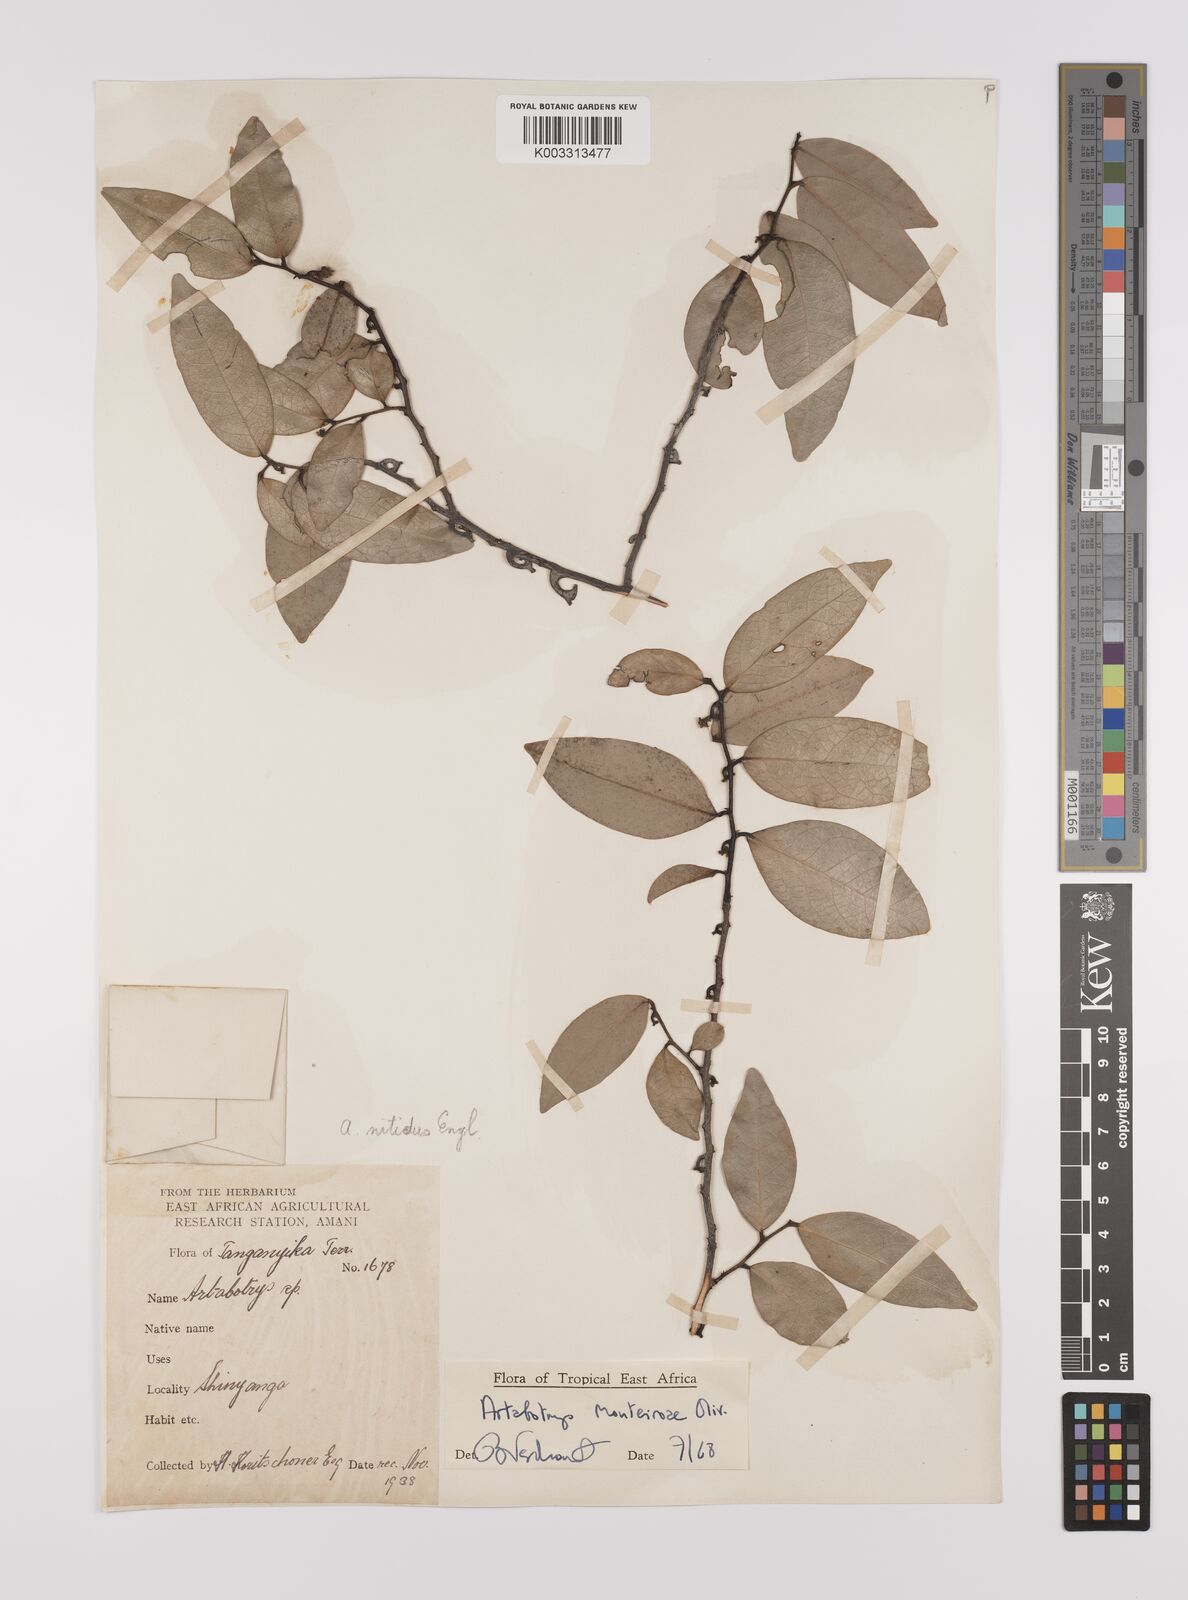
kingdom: Plantae
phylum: Tracheophyta
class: Magnoliopsida
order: Magnoliales
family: Annonaceae
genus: Artabotrys
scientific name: Artabotrys monteiroae
